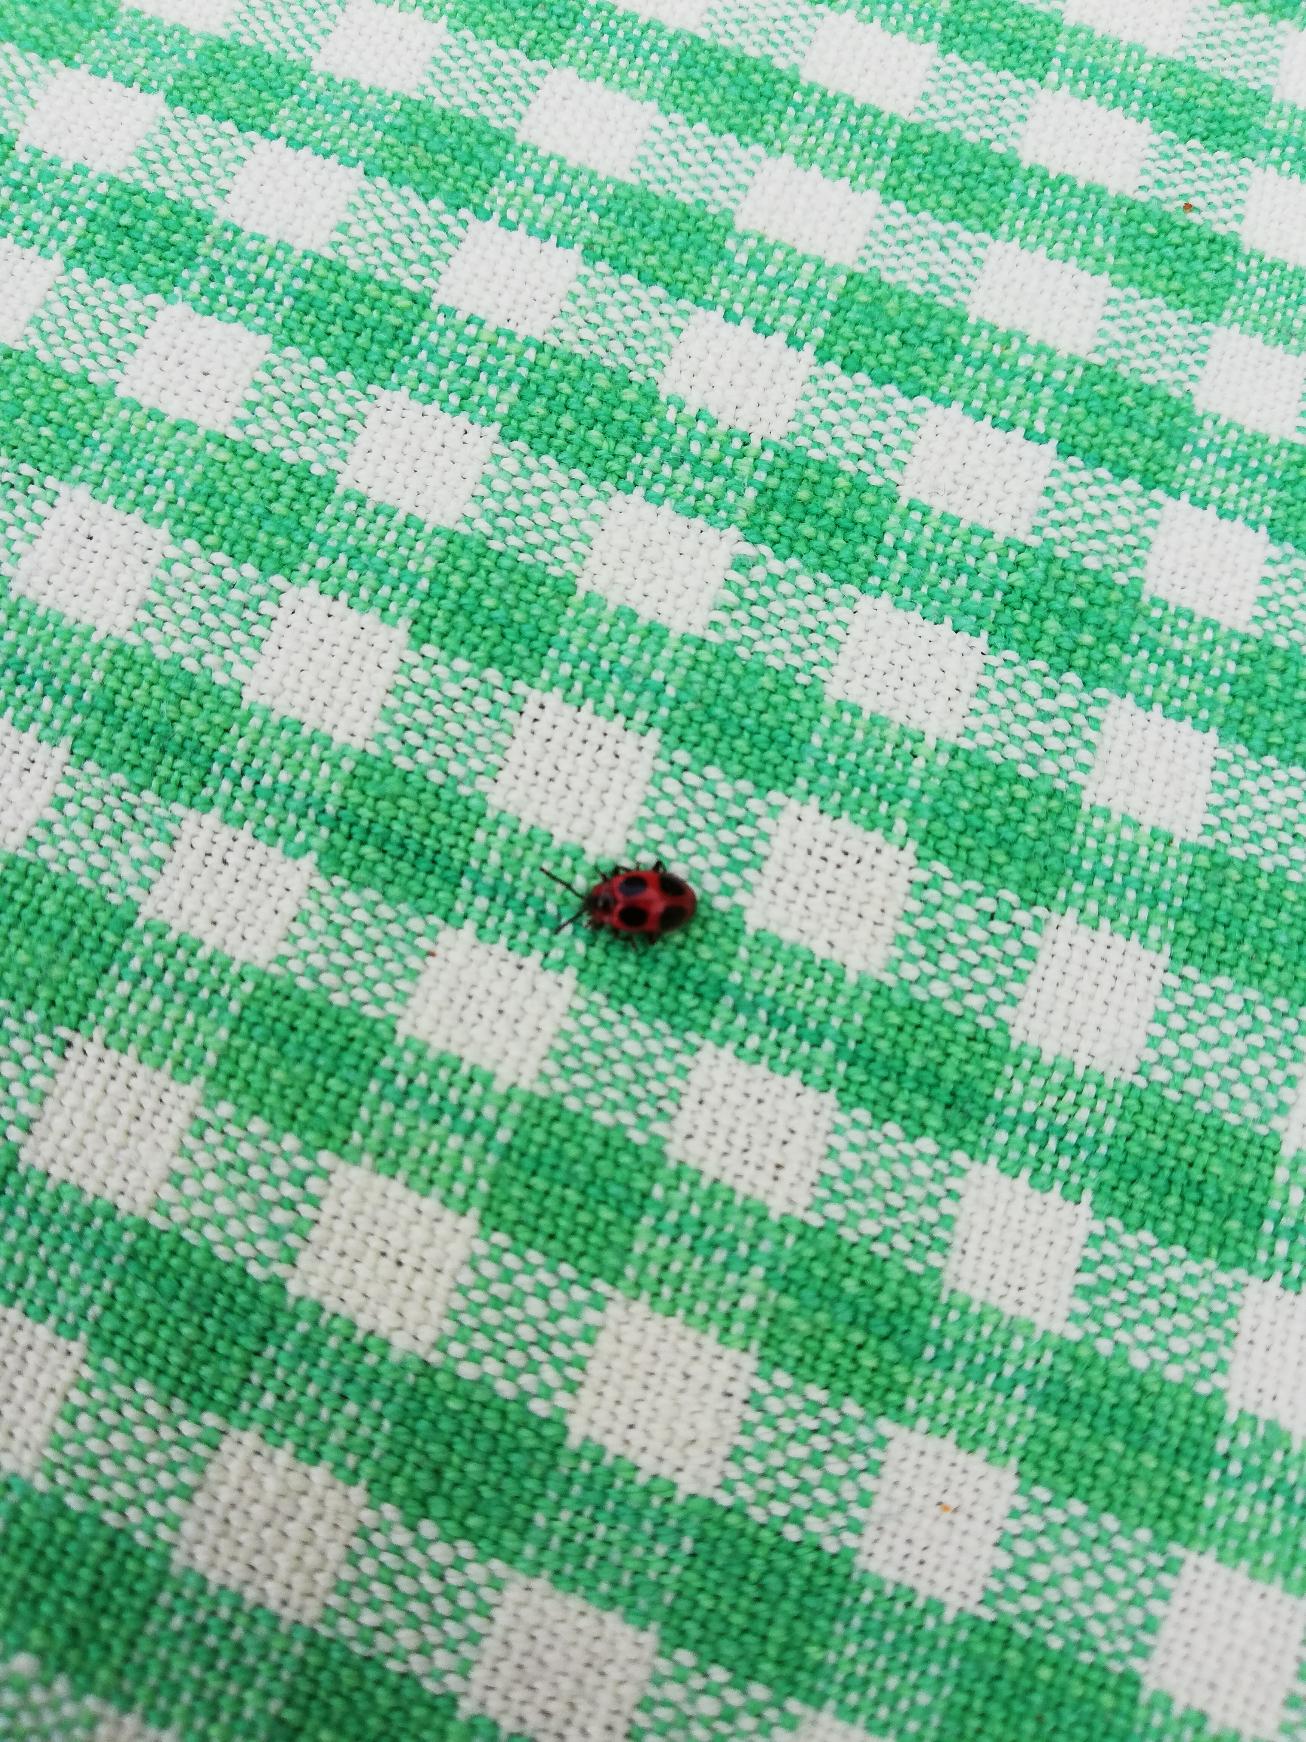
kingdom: Animalia
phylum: Arthropoda
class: Insecta
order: Coleoptera
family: Endomychidae
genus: Endomychus
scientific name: Endomychus coccineus
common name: Skarlagensvampehøne
